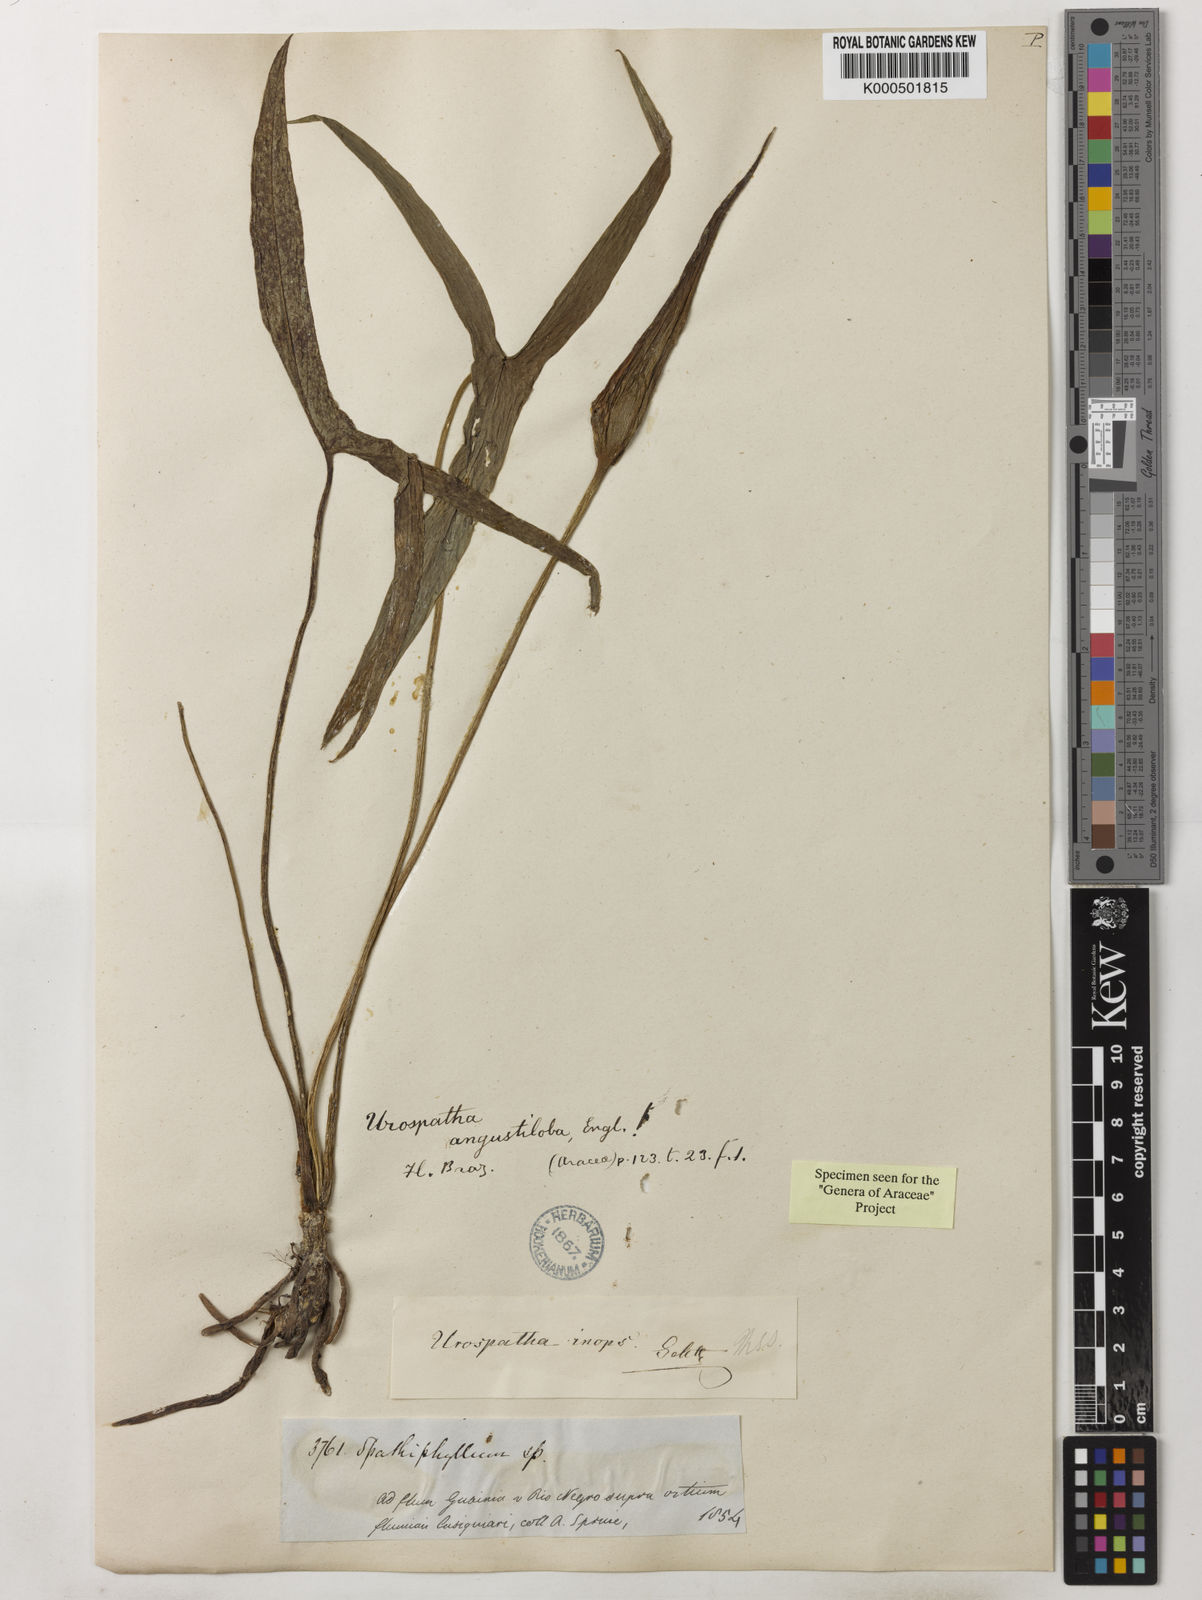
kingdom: Plantae
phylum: Tracheophyta
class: Liliopsida
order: Alismatales
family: Araceae
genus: Urospatha
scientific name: Urospatha angustiloba
